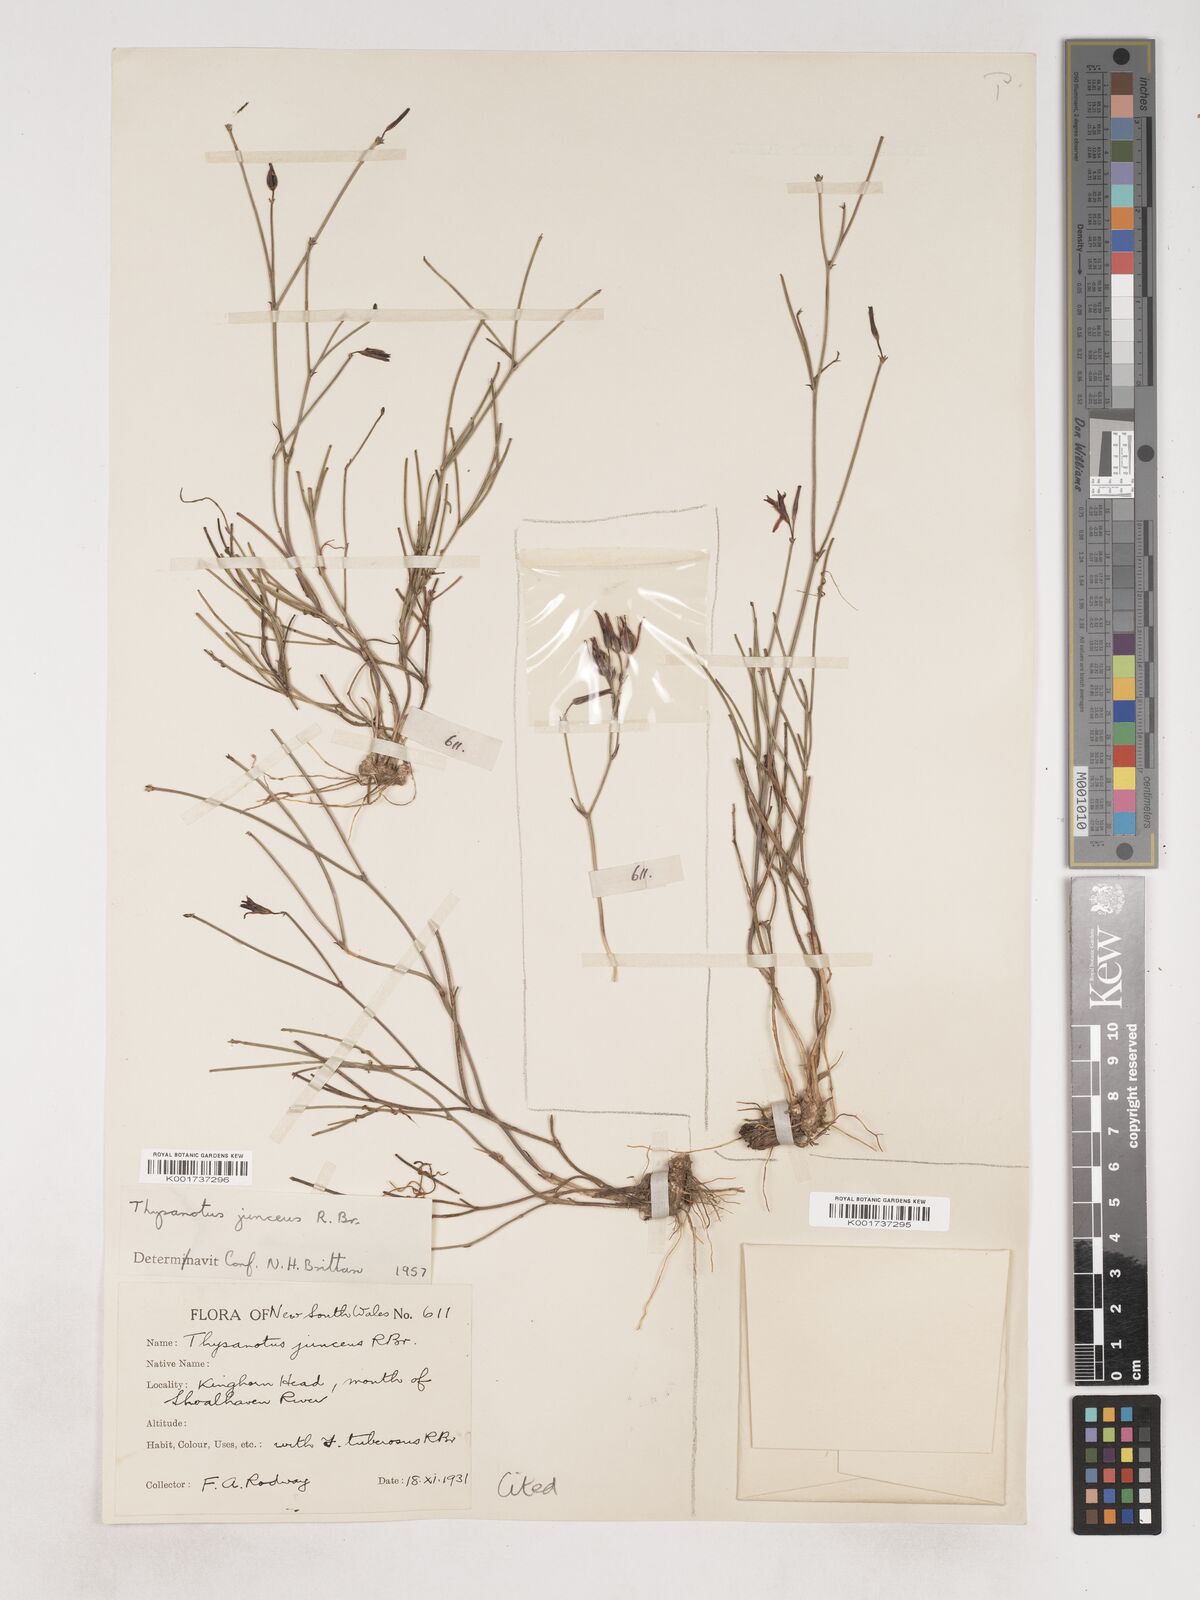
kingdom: Plantae
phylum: Tracheophyta
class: Liliopsida
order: Asparagales
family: Asparagaceae
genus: Thysanotus
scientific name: Thysanotus juncifolius
